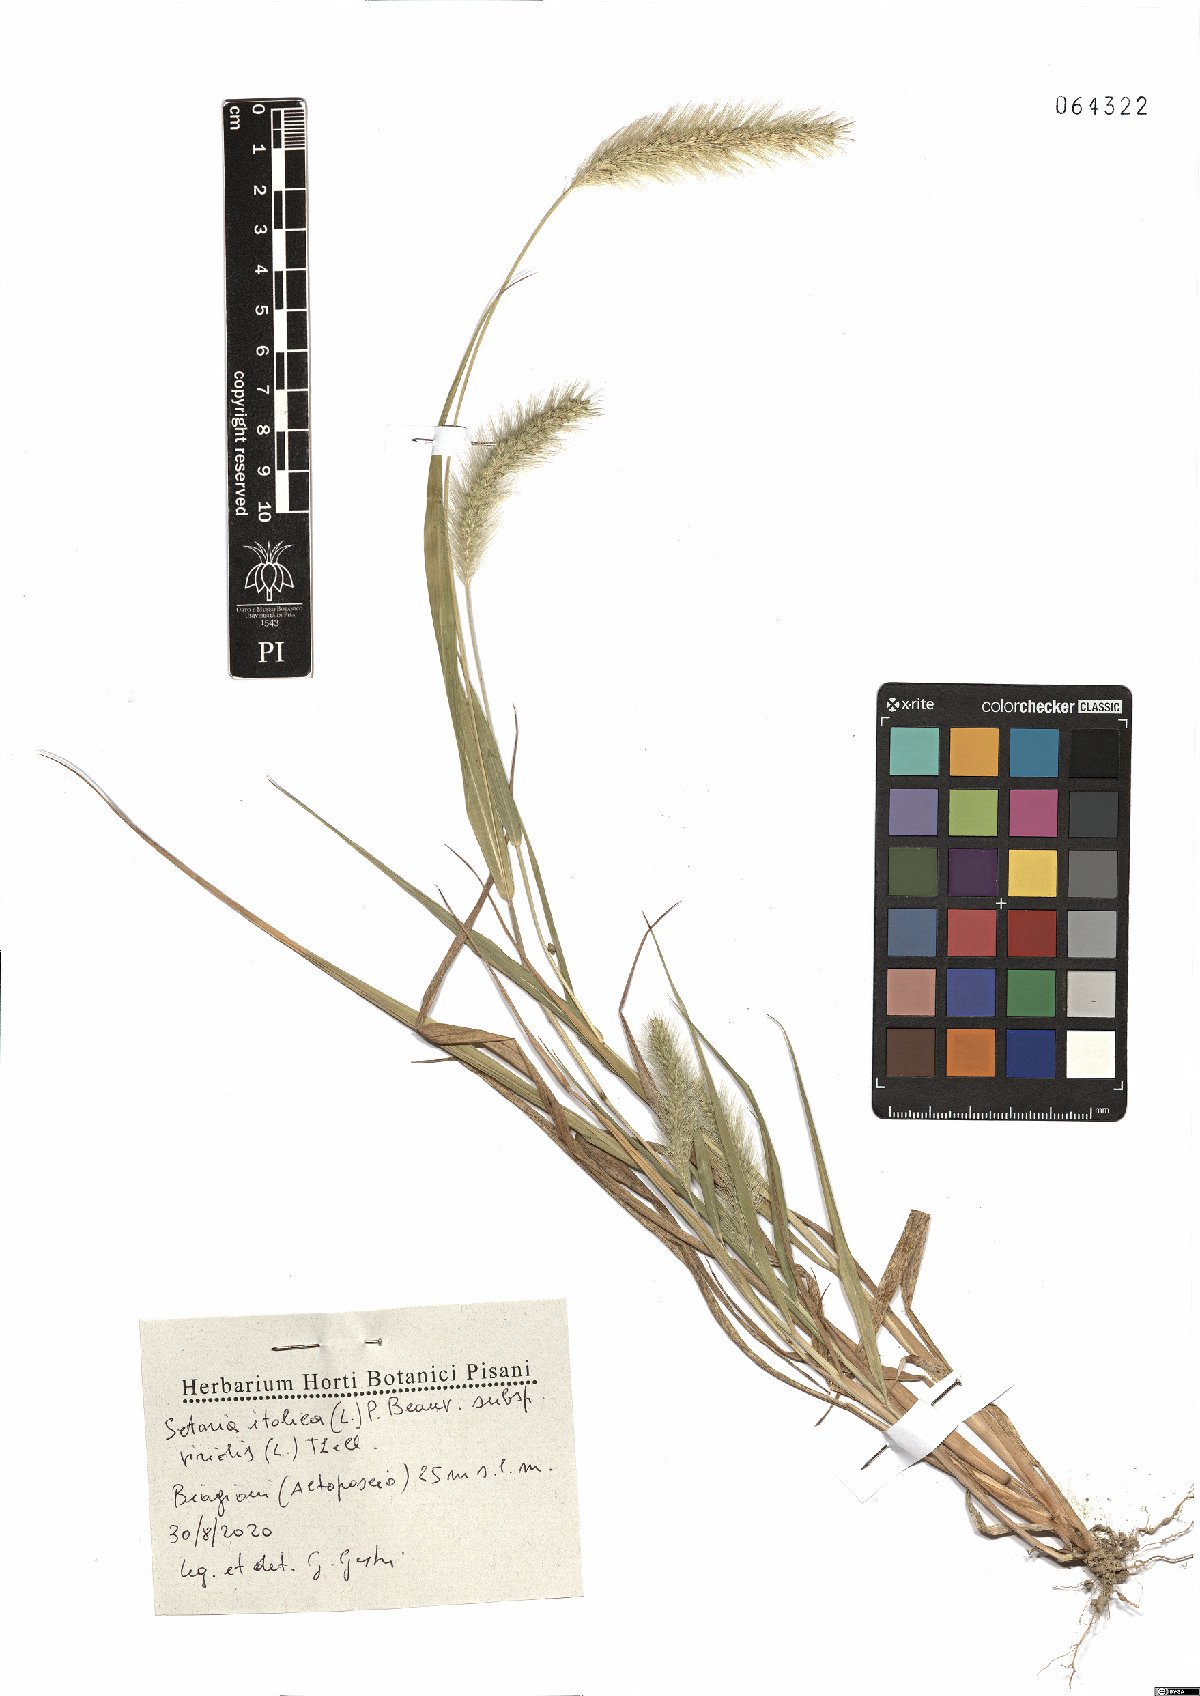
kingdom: Plantae
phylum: Tracheophyta
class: Liliopsida
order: Poales
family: Poaceae
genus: Setaria
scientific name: Setaria viridis
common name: Green bristlegrass
